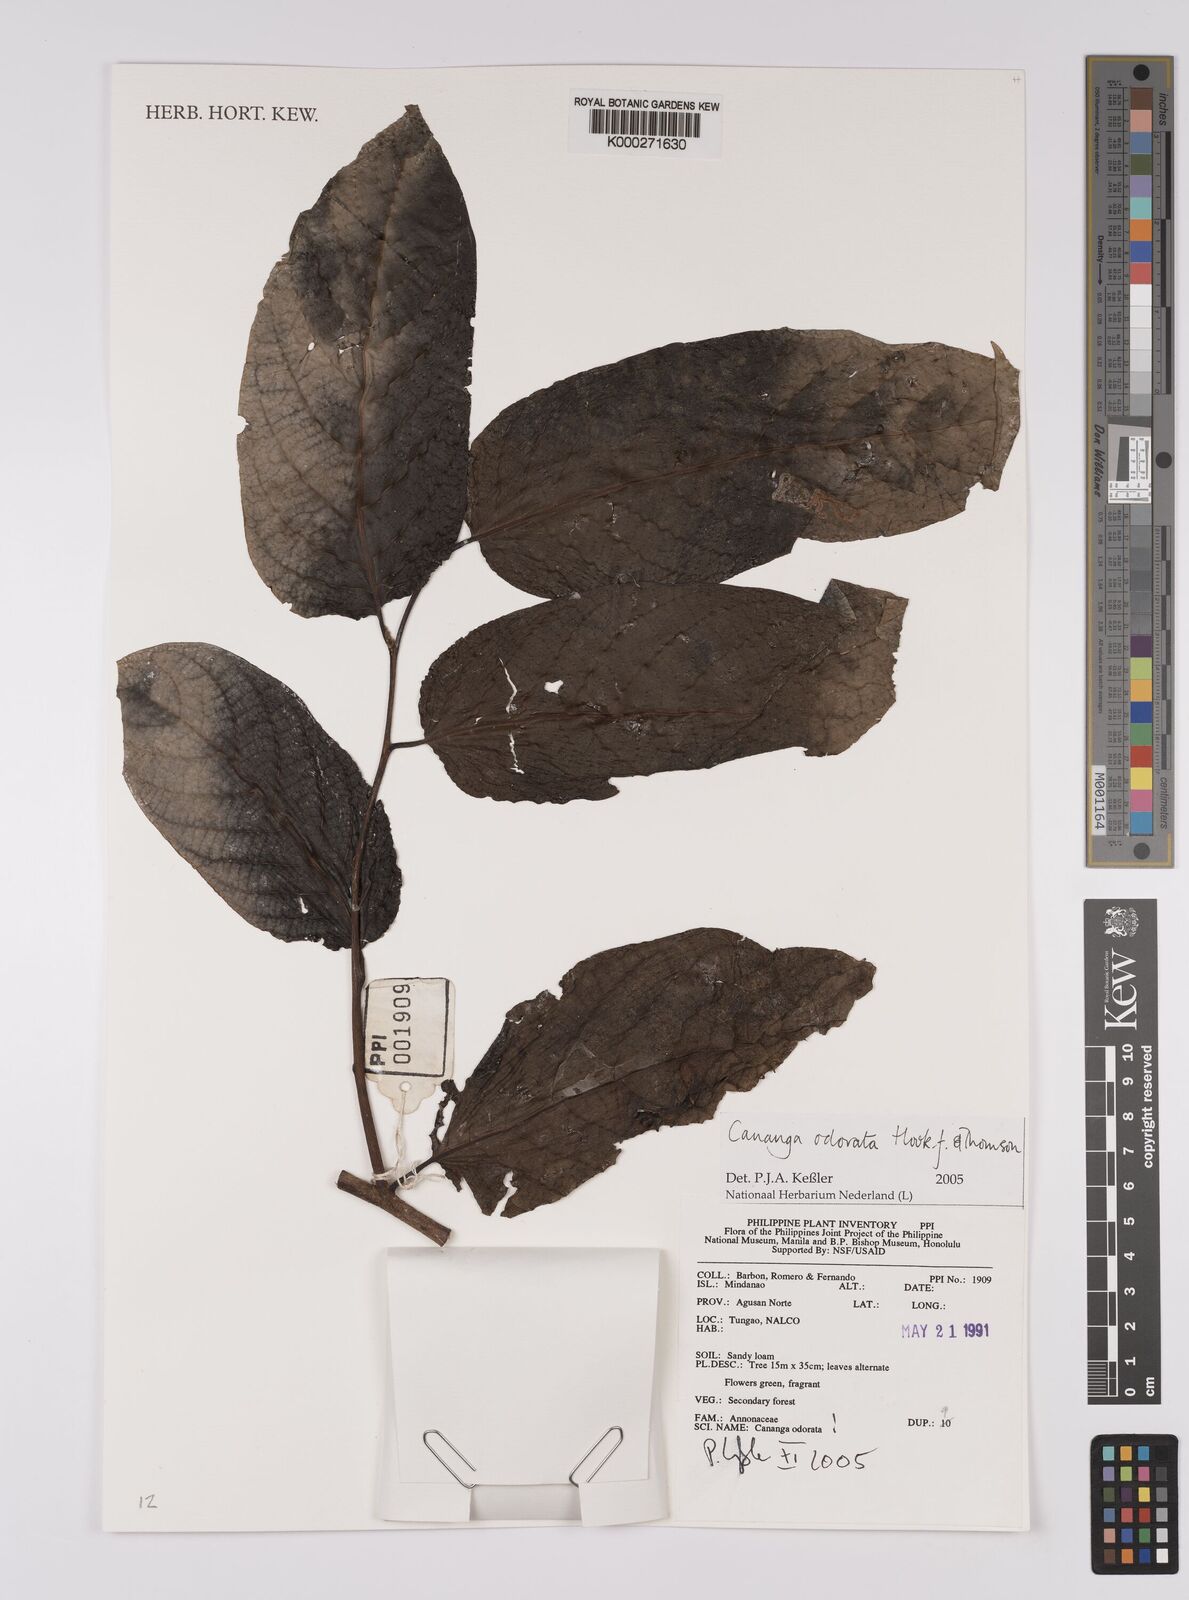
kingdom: Plantae
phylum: Tracheophyta
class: Magnoliopsida
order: Magnoliales
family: Annonaceae
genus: Cananga
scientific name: Cananga odorata
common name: Cananga tree
